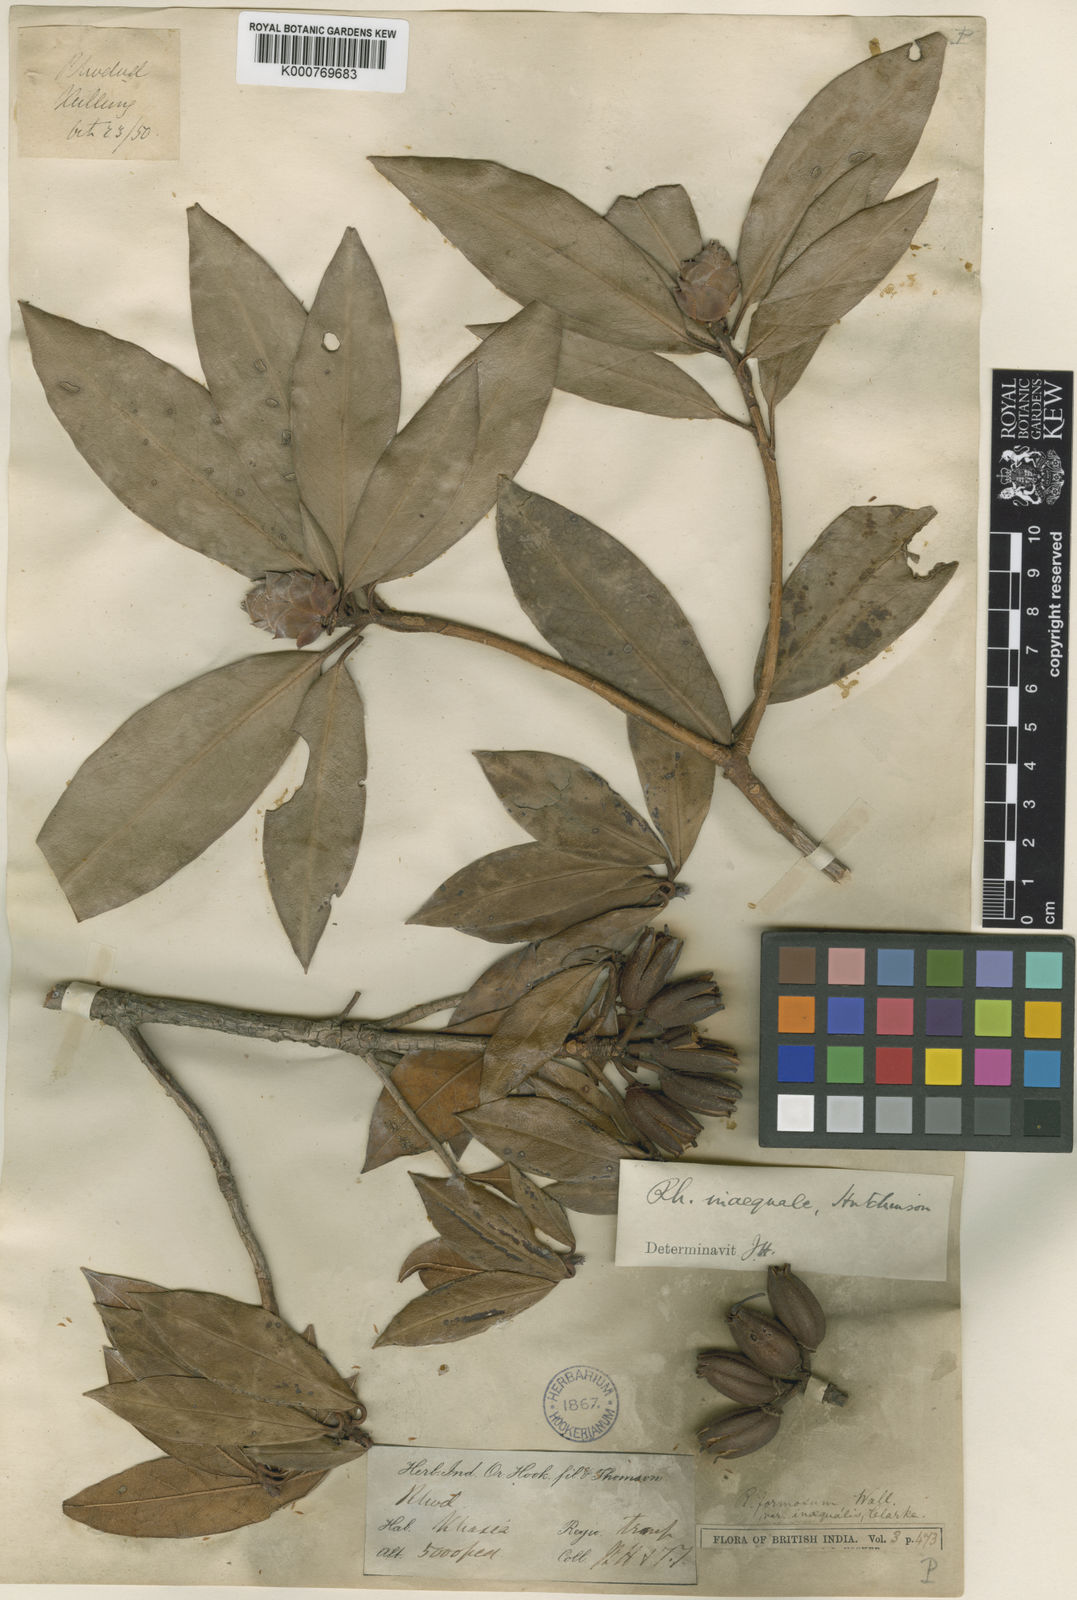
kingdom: Plantae
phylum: Tracheophyta
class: Magnoliopsida
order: Ericales
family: Ericaceae
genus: Rhododendron
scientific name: Rhododendron formosum
